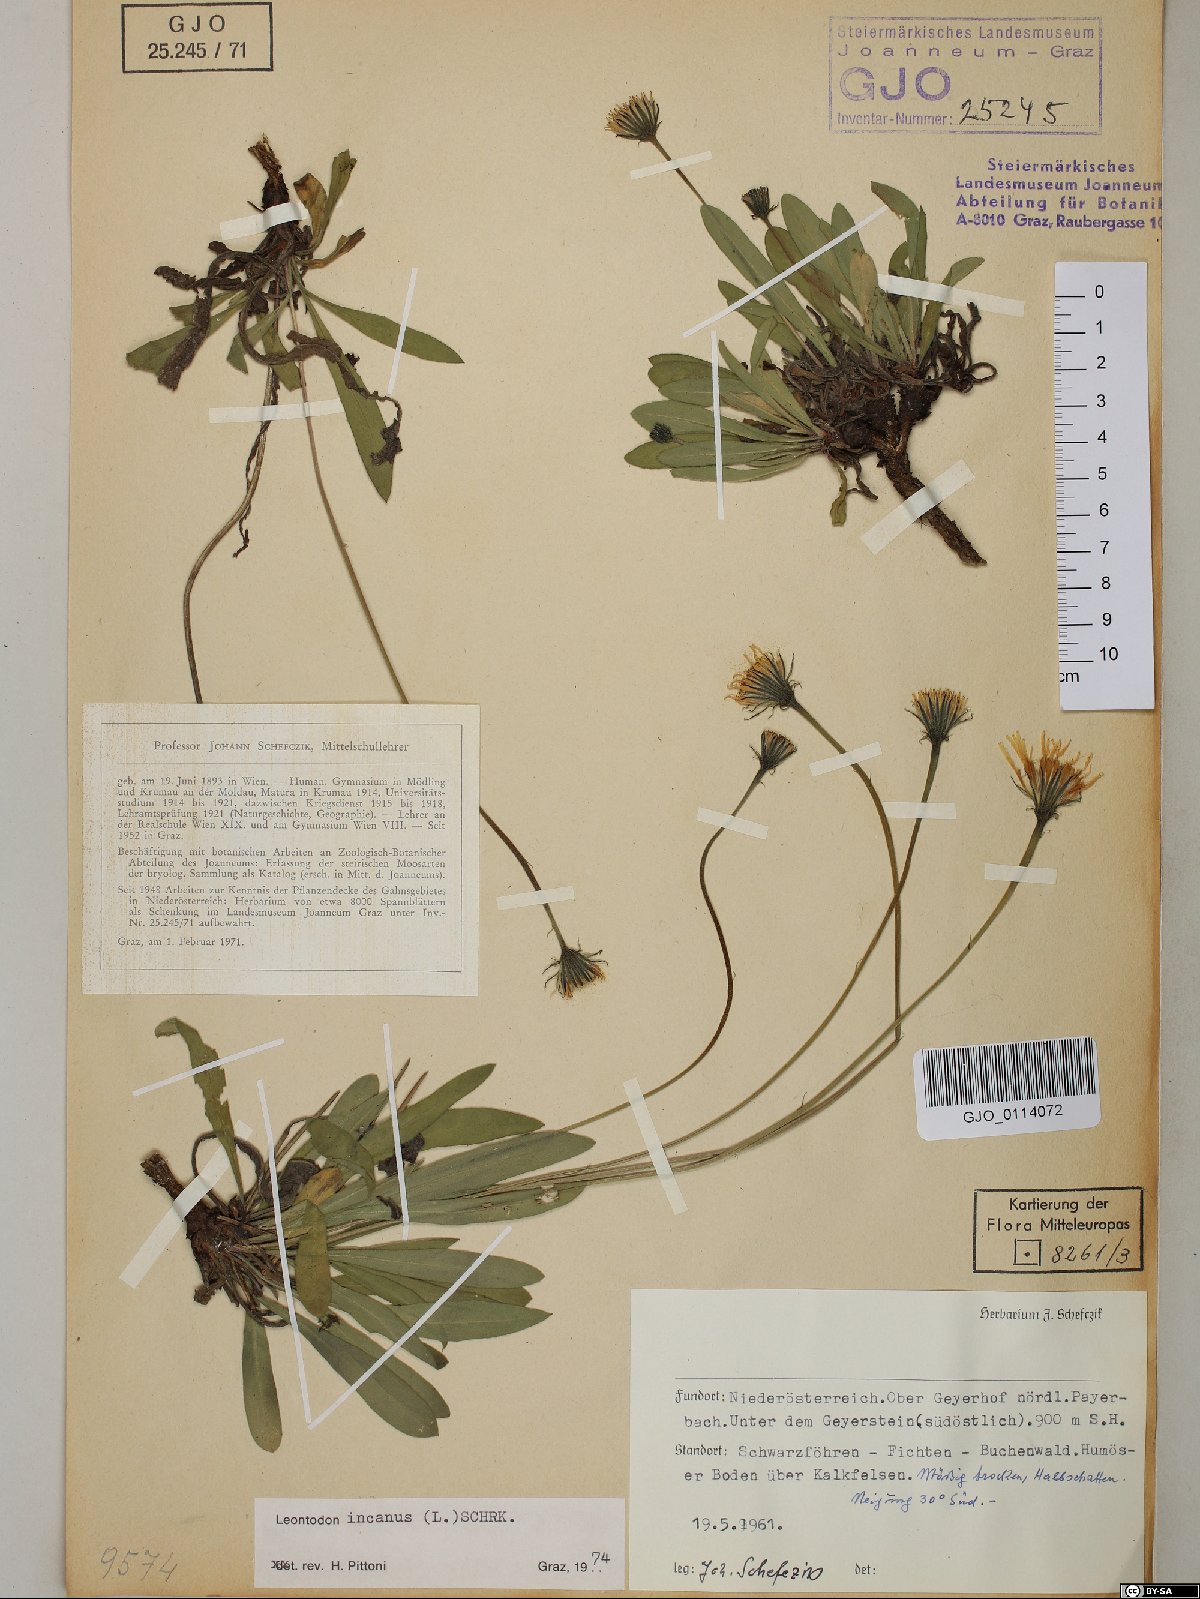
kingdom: Plantae
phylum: Tracheophyta
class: Magnoliopsida
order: Asterales
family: Asteraceae
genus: Leontodon
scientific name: Leontodon incanus
